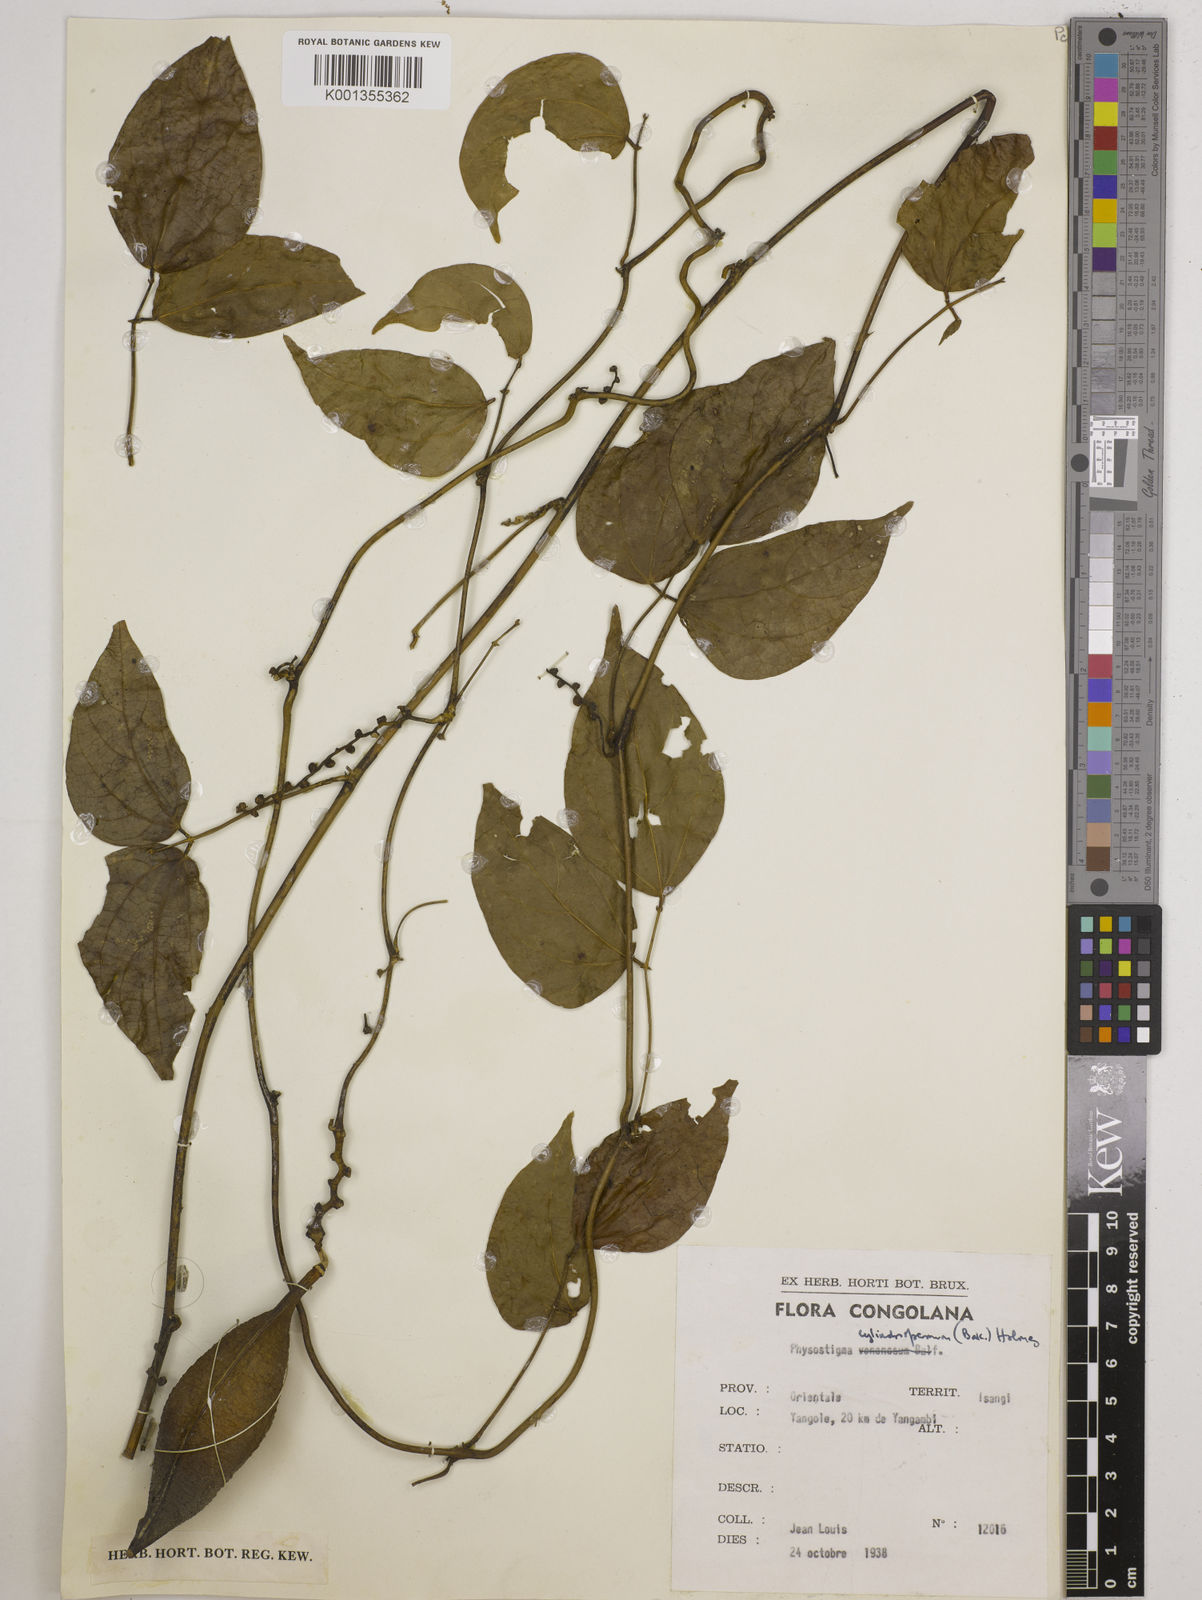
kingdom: Plantae
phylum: Tracheophyta
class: Magnoliopsida
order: Fabales
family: Fabaceae
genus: Physostigma
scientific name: Physostigma cylindrospermum
